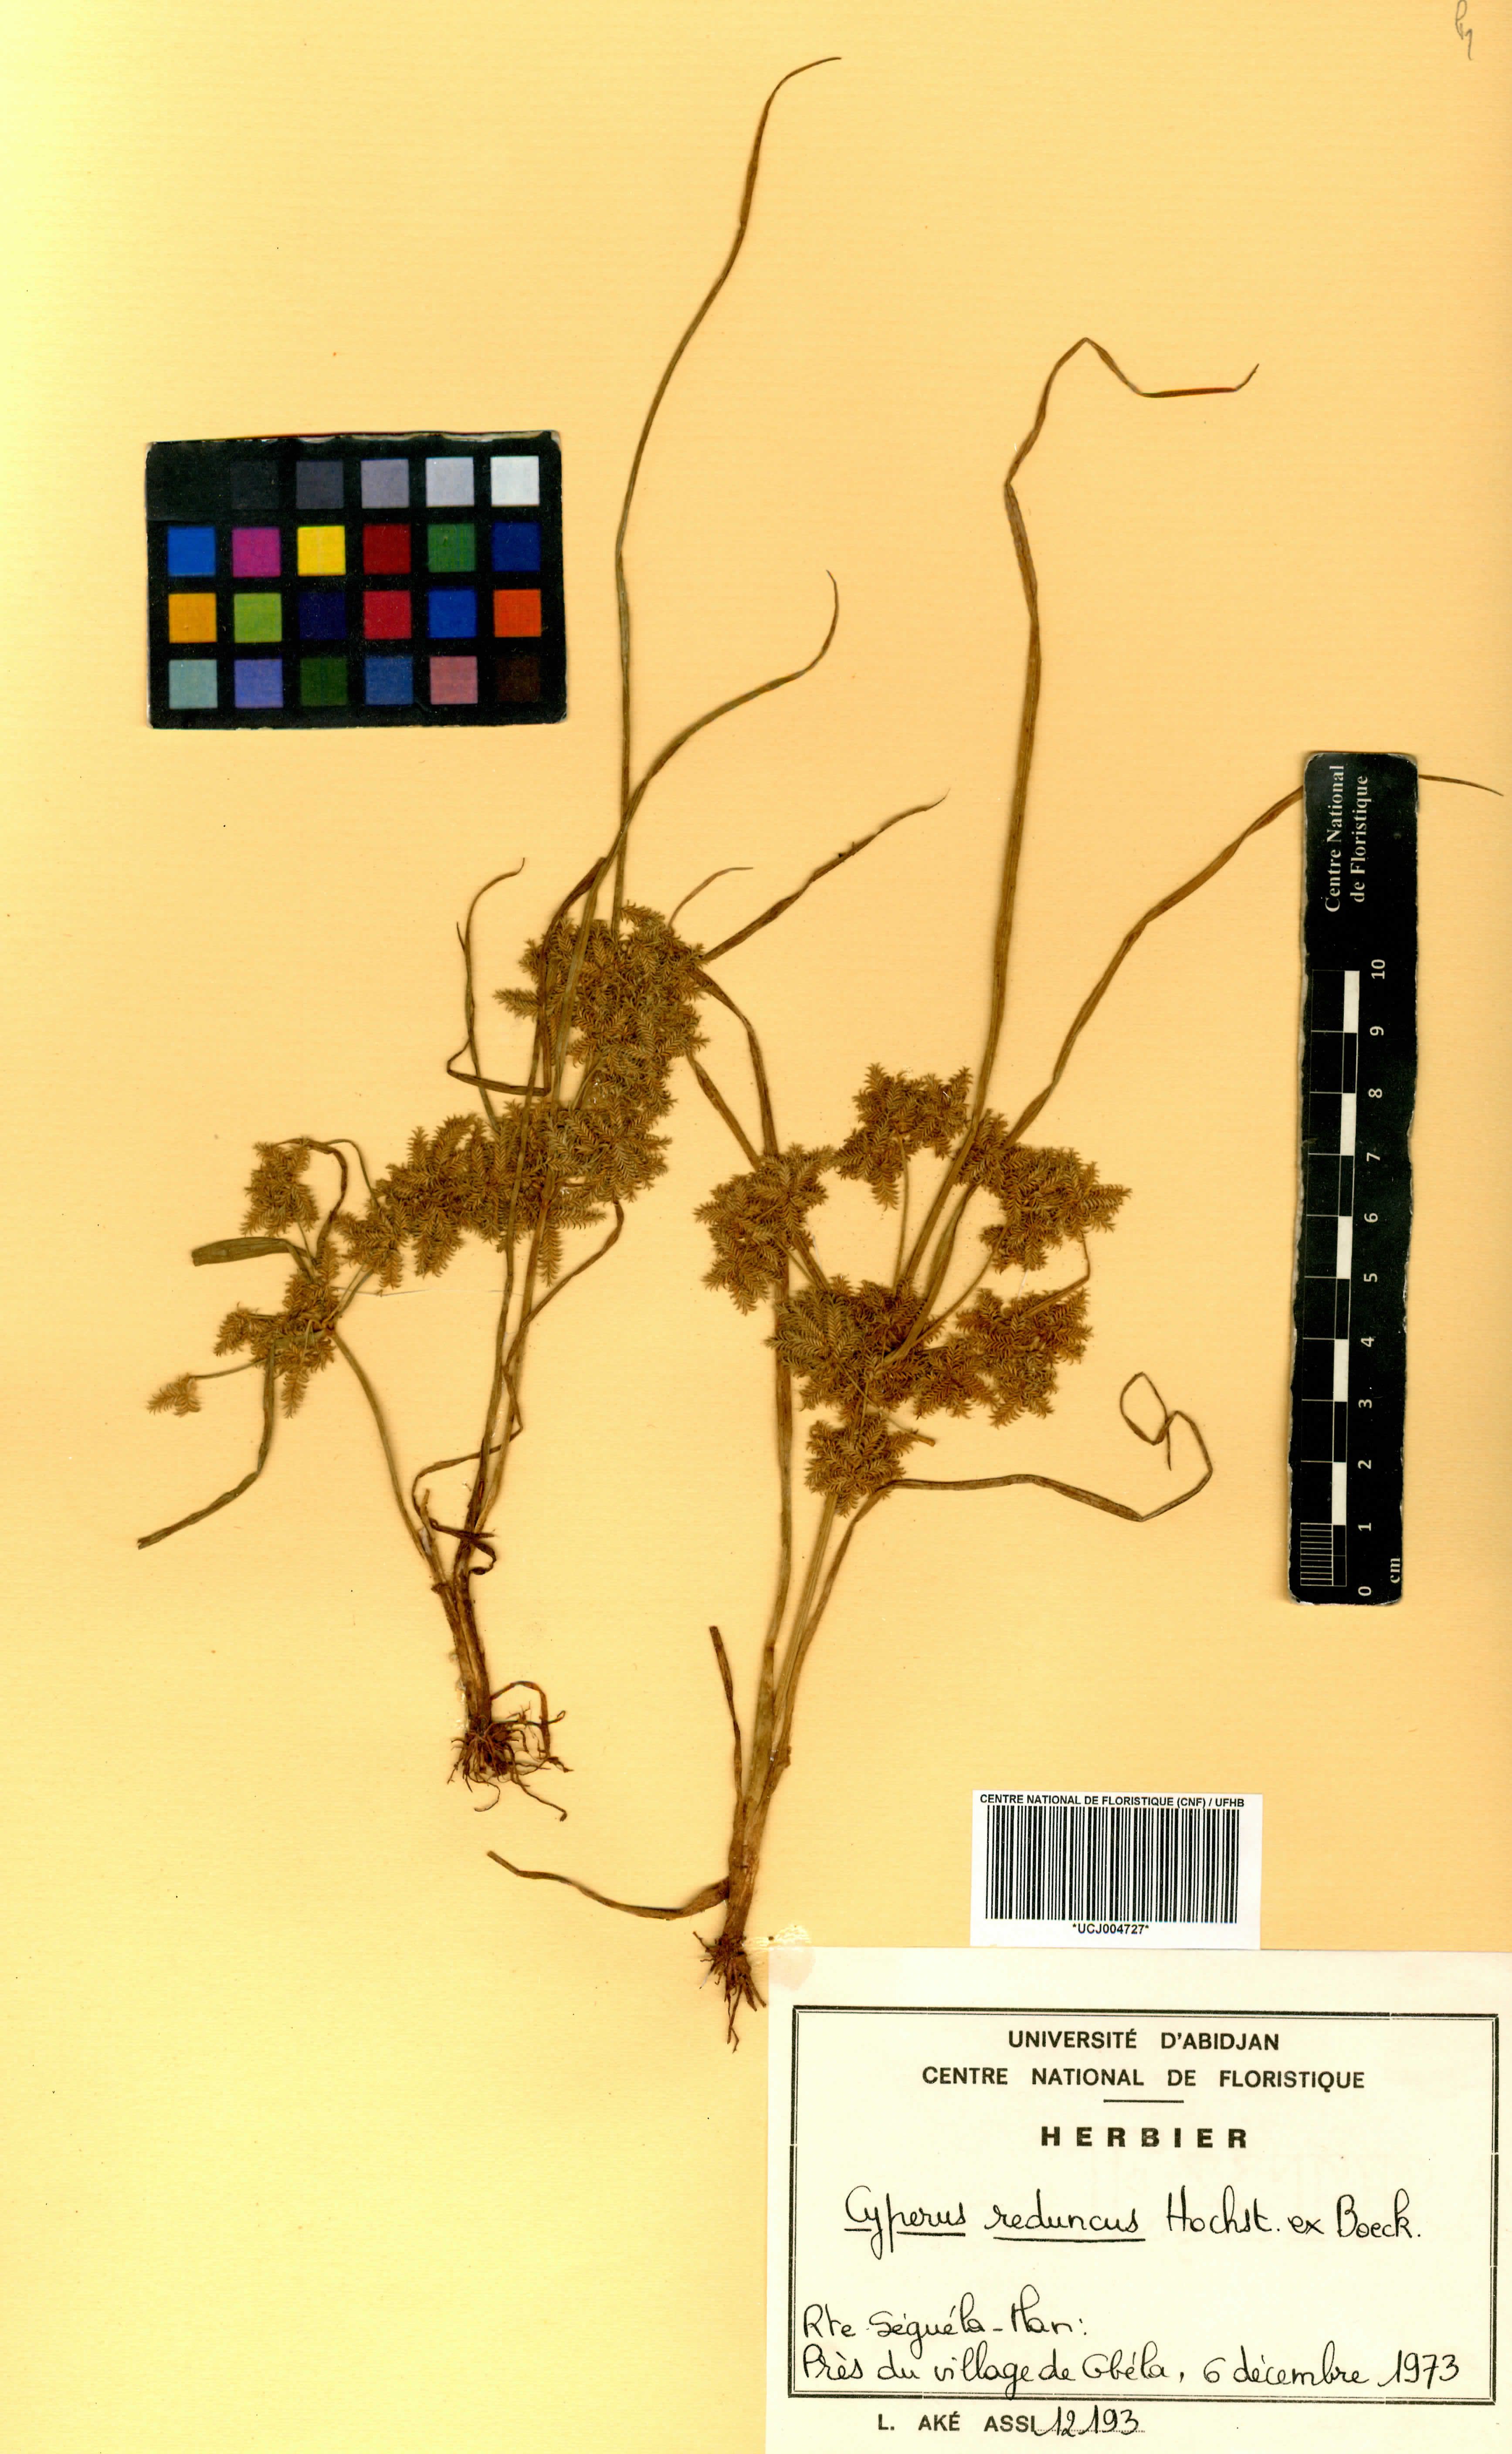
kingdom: Plantae
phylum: Tracheophyta
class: Liliopsida
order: Poales
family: Cyperaceae
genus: Cyperus
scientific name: Cyperus reduncus
